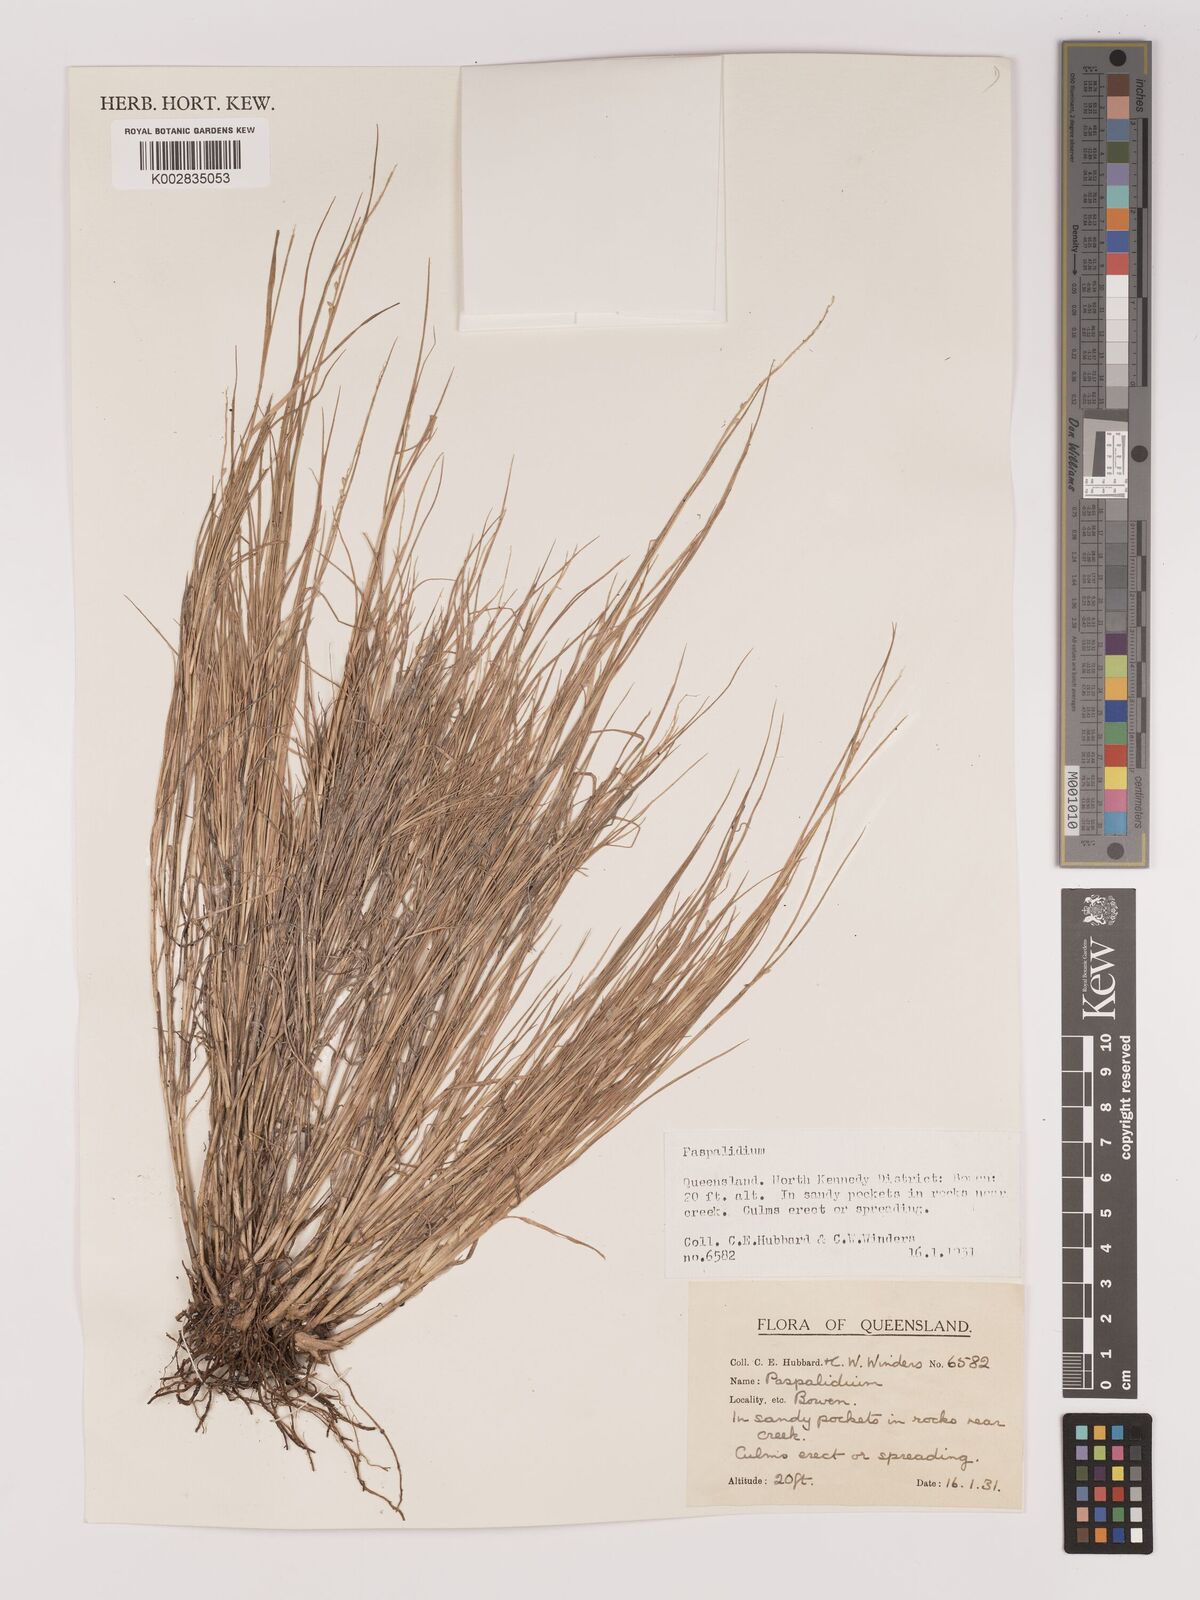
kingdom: Plantae
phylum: Tracheophyta
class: Liliopsida
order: Poales
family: Poaceae
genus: Setaria
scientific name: Setaria
